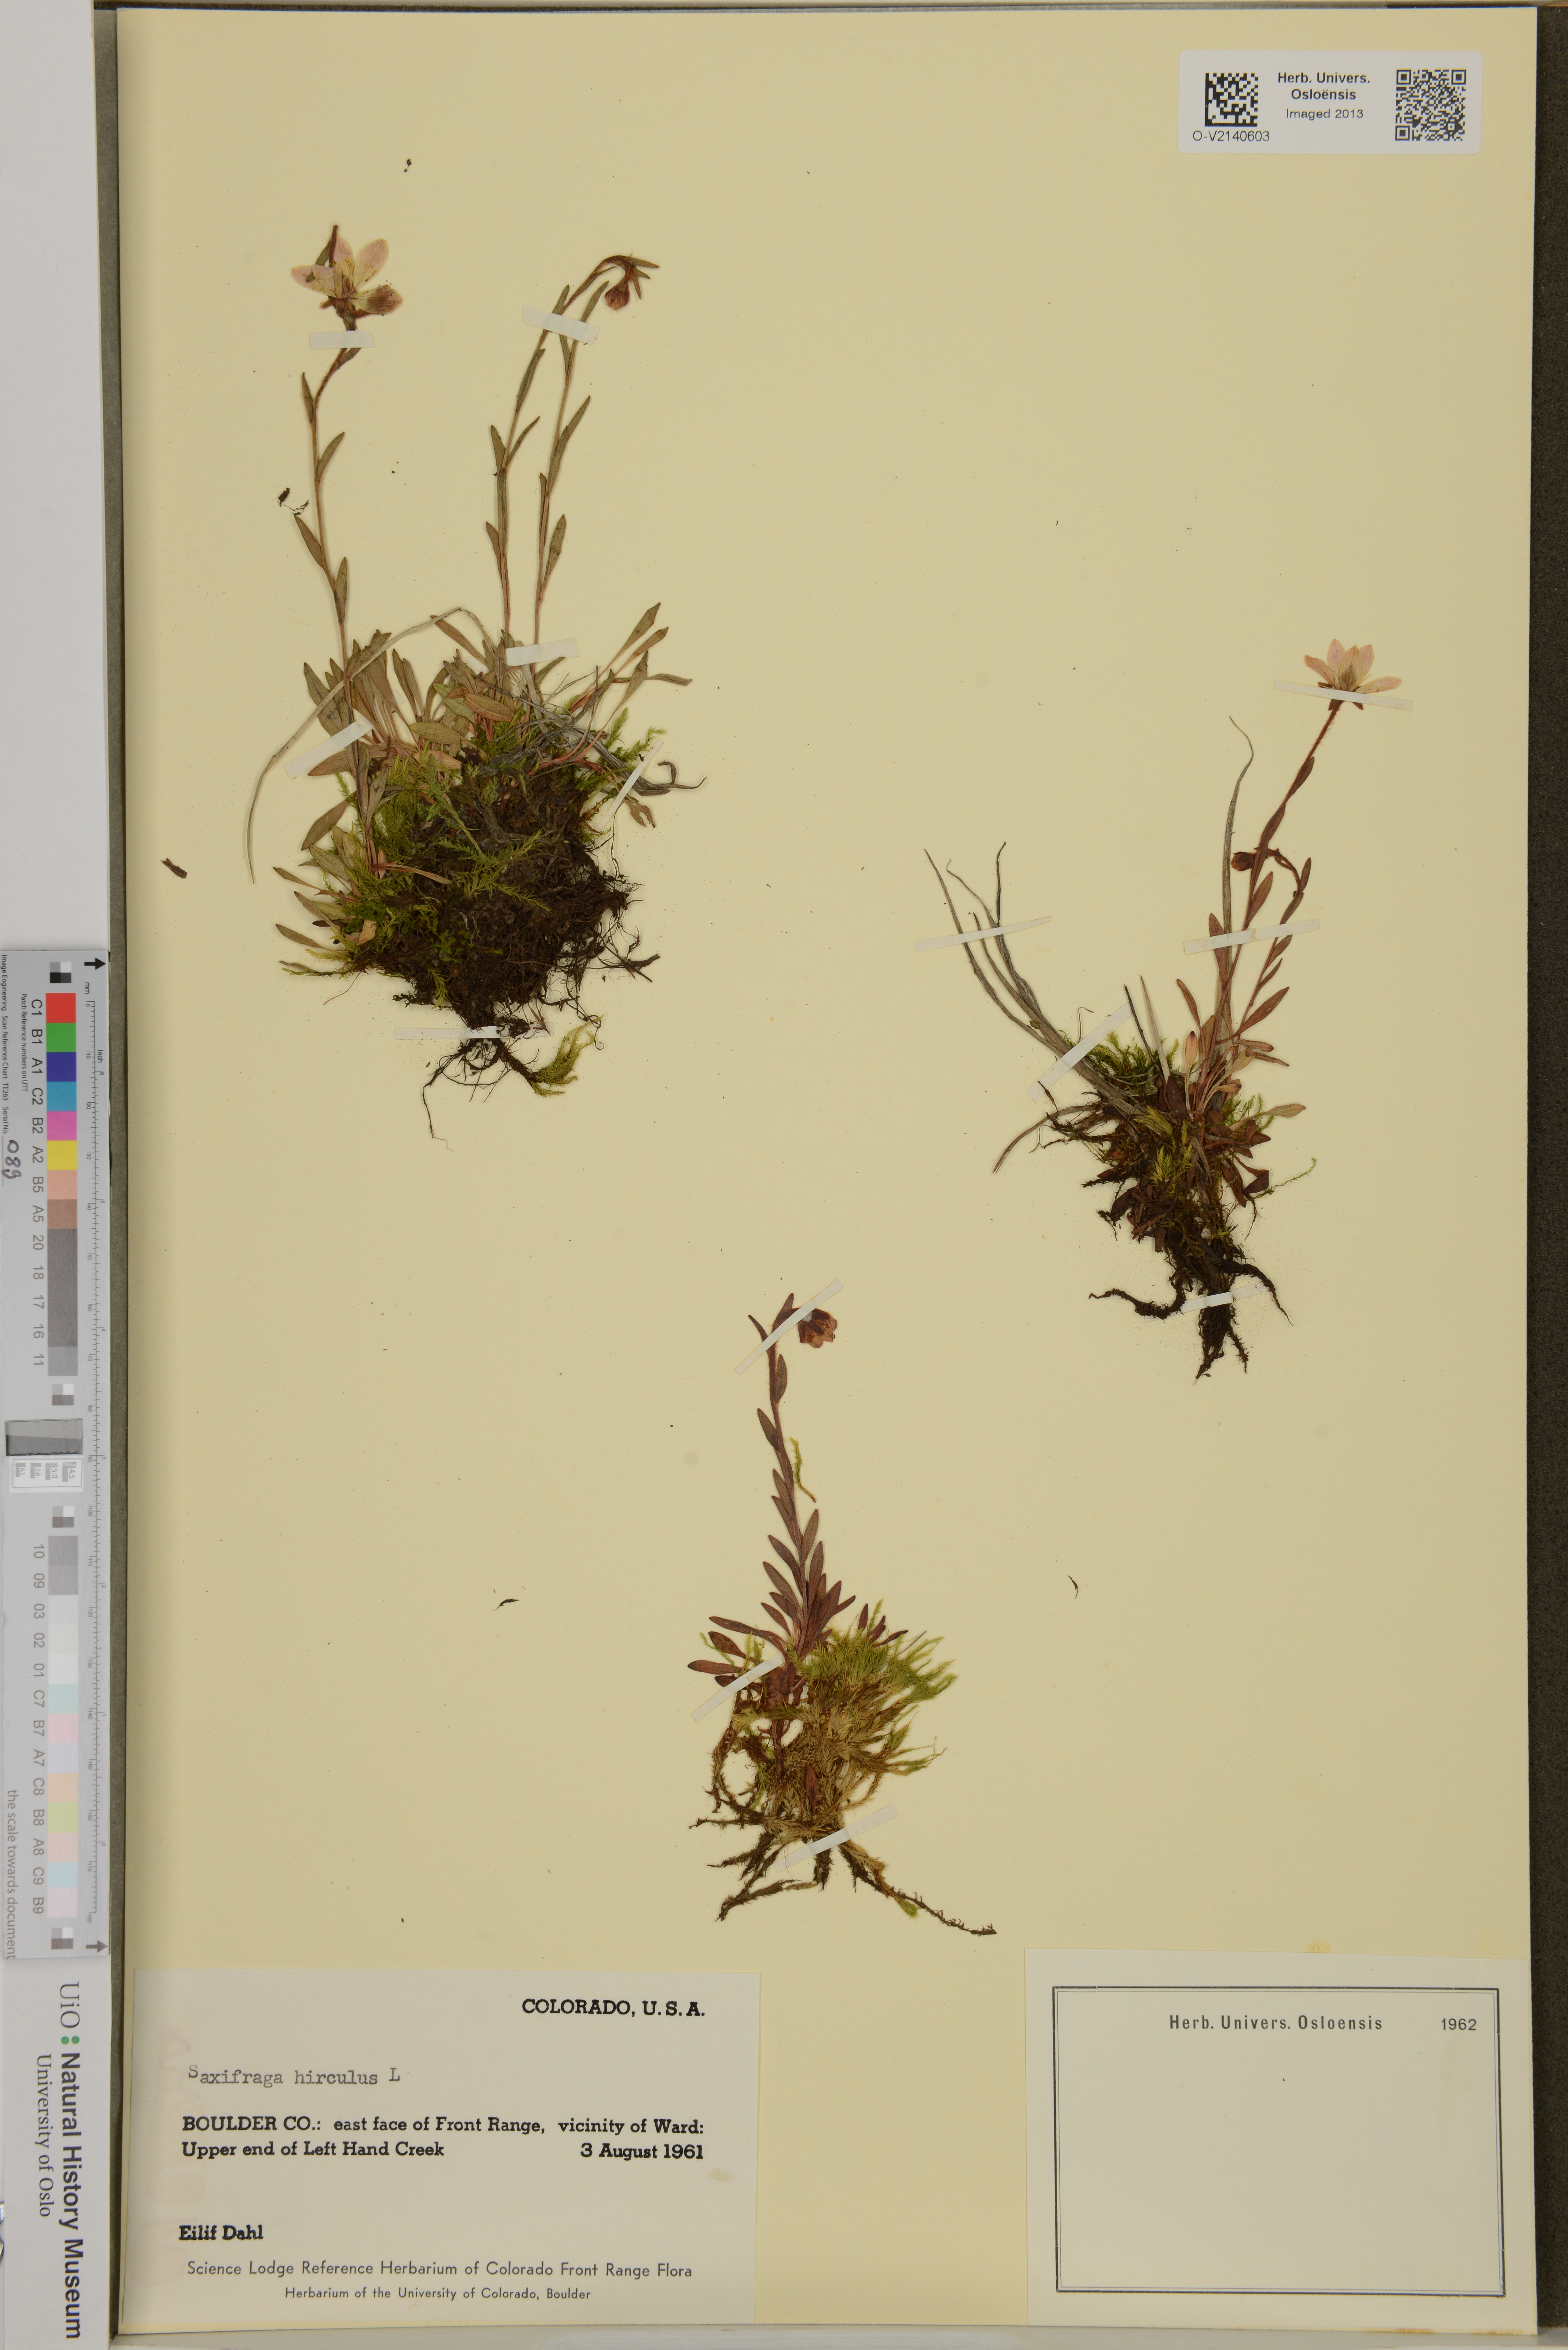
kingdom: Plantae
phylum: Tracheophyta
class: Magnoliopsida
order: Saxifragales
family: Saxifragaceae
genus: Saxifraga
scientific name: Saxifraga hirculus
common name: Yellow marsh saxifrage
